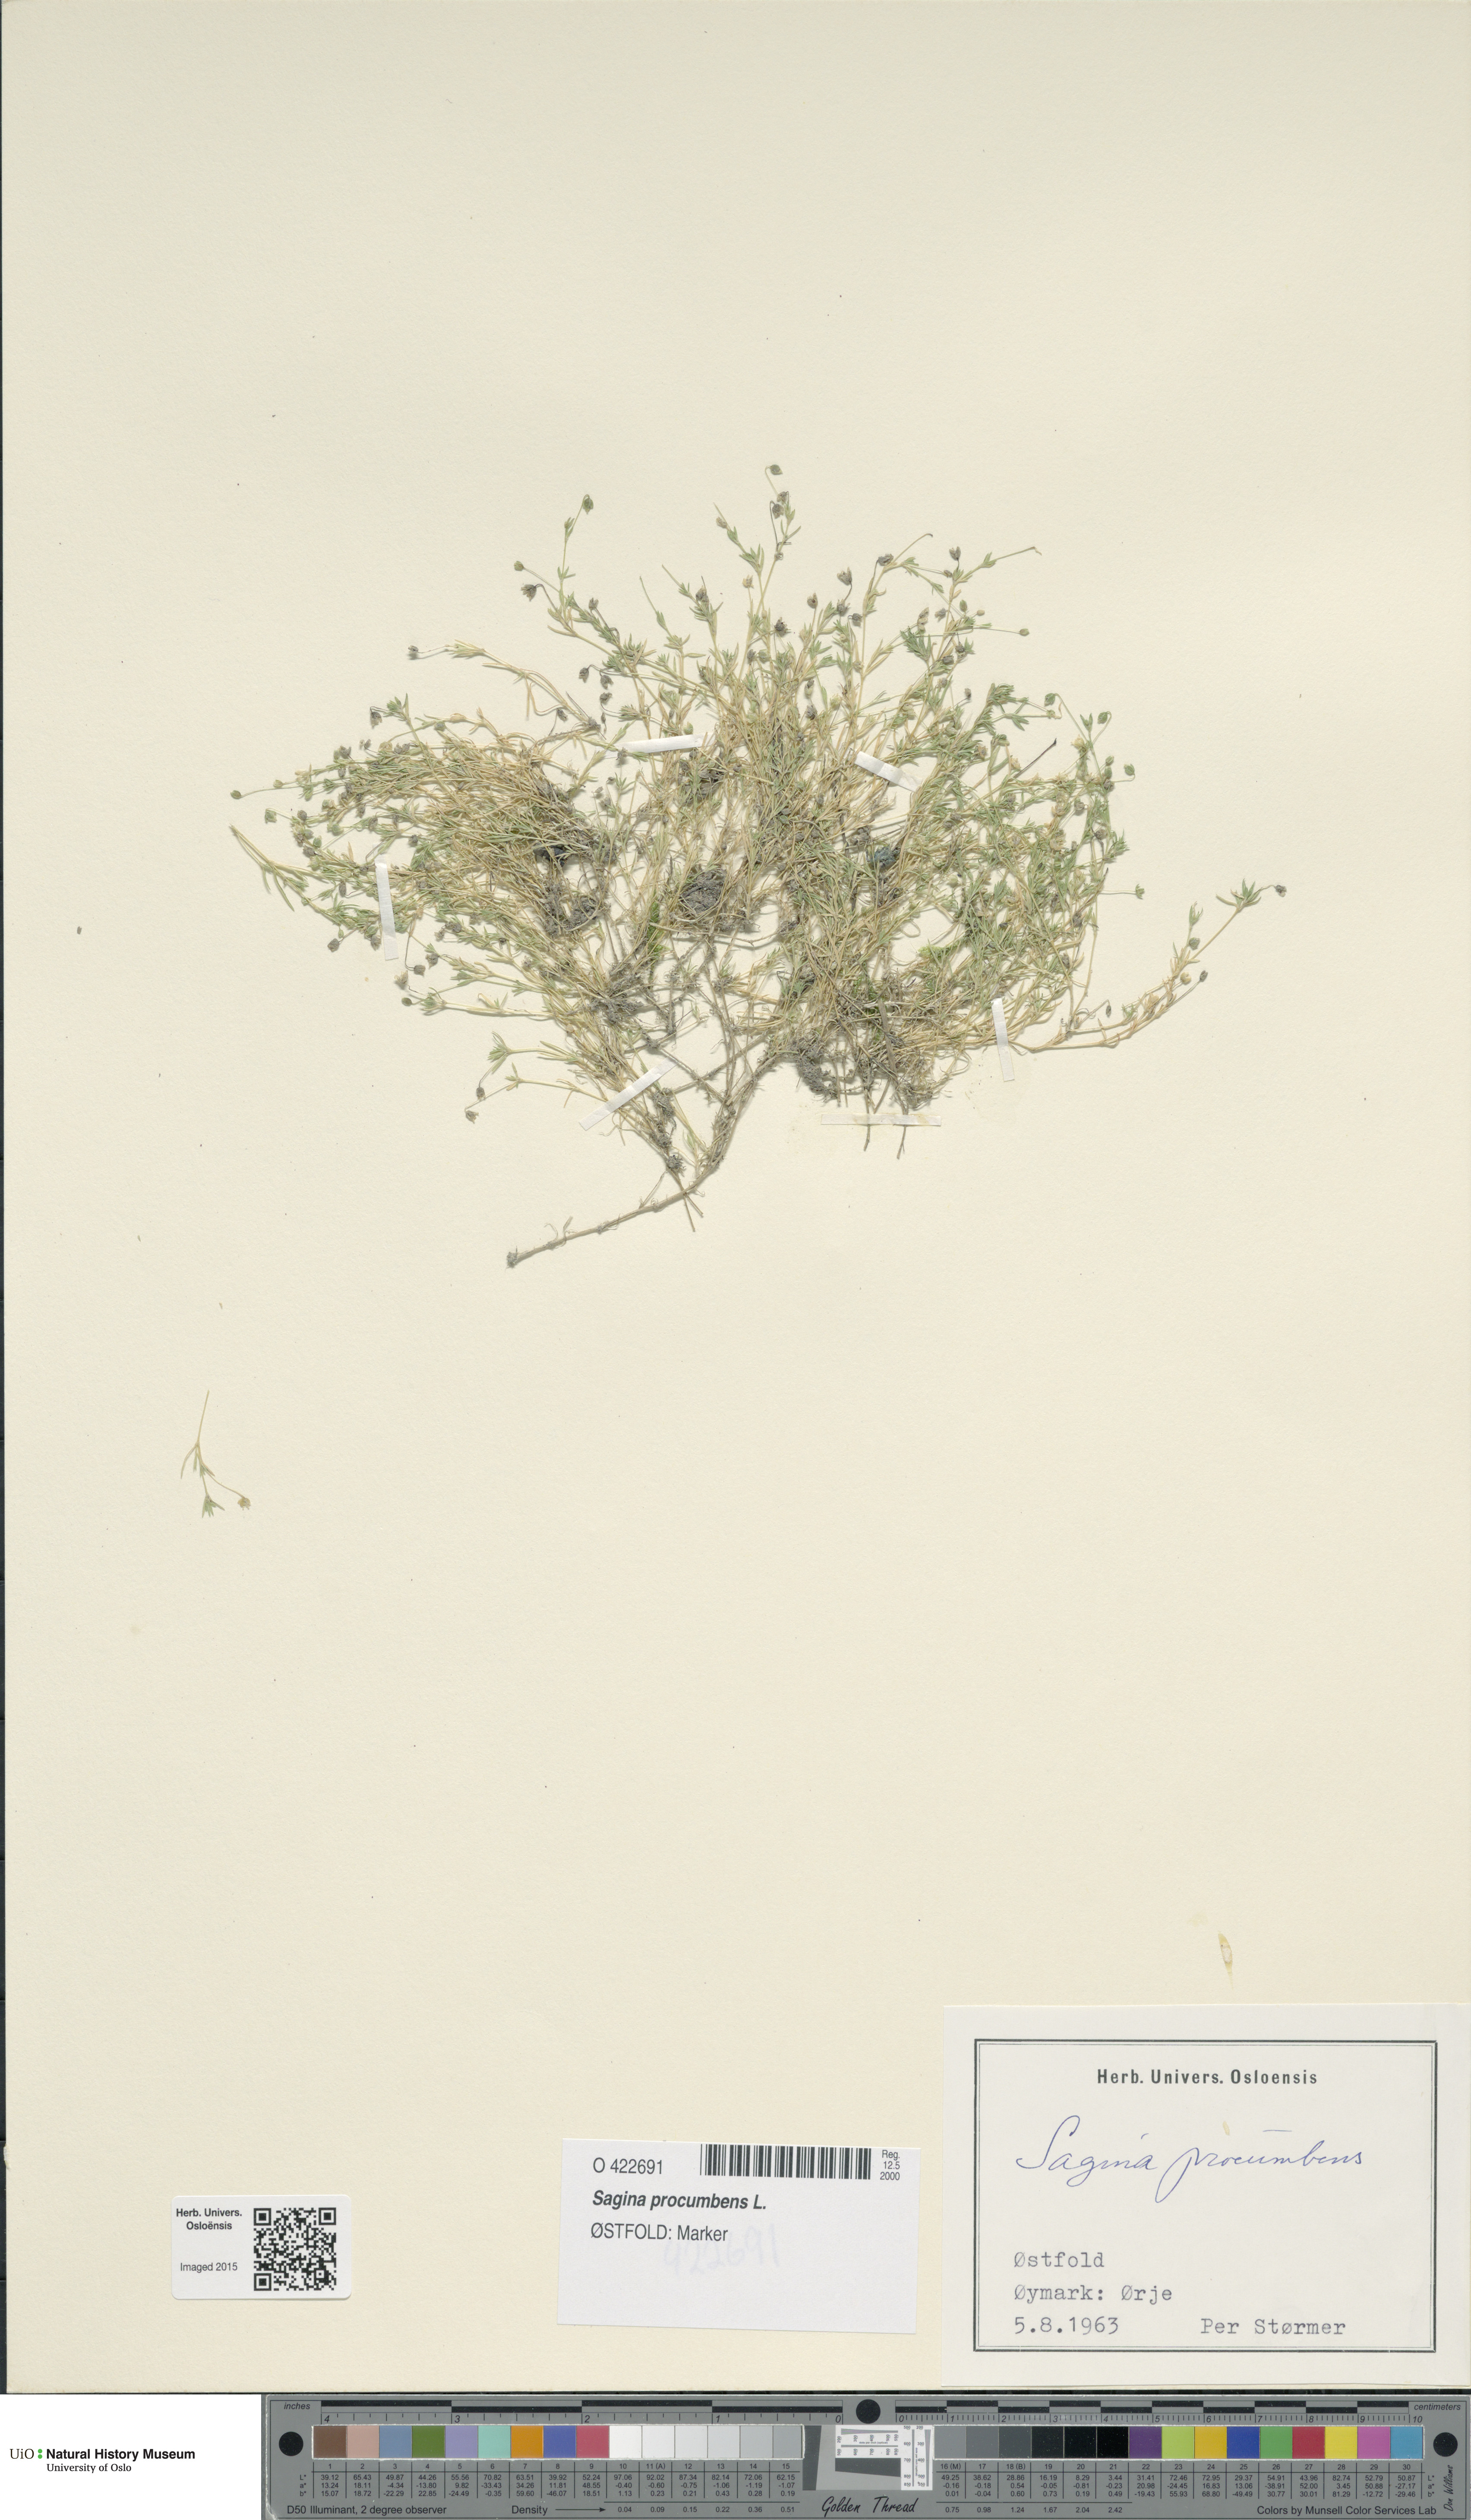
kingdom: Plantae
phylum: Tracheophyta
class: Magnoliopsida
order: Caryophyllales
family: Caryophyllaceae
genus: Sagina
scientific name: Sagina procumbens
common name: Procumbent pearlwort
